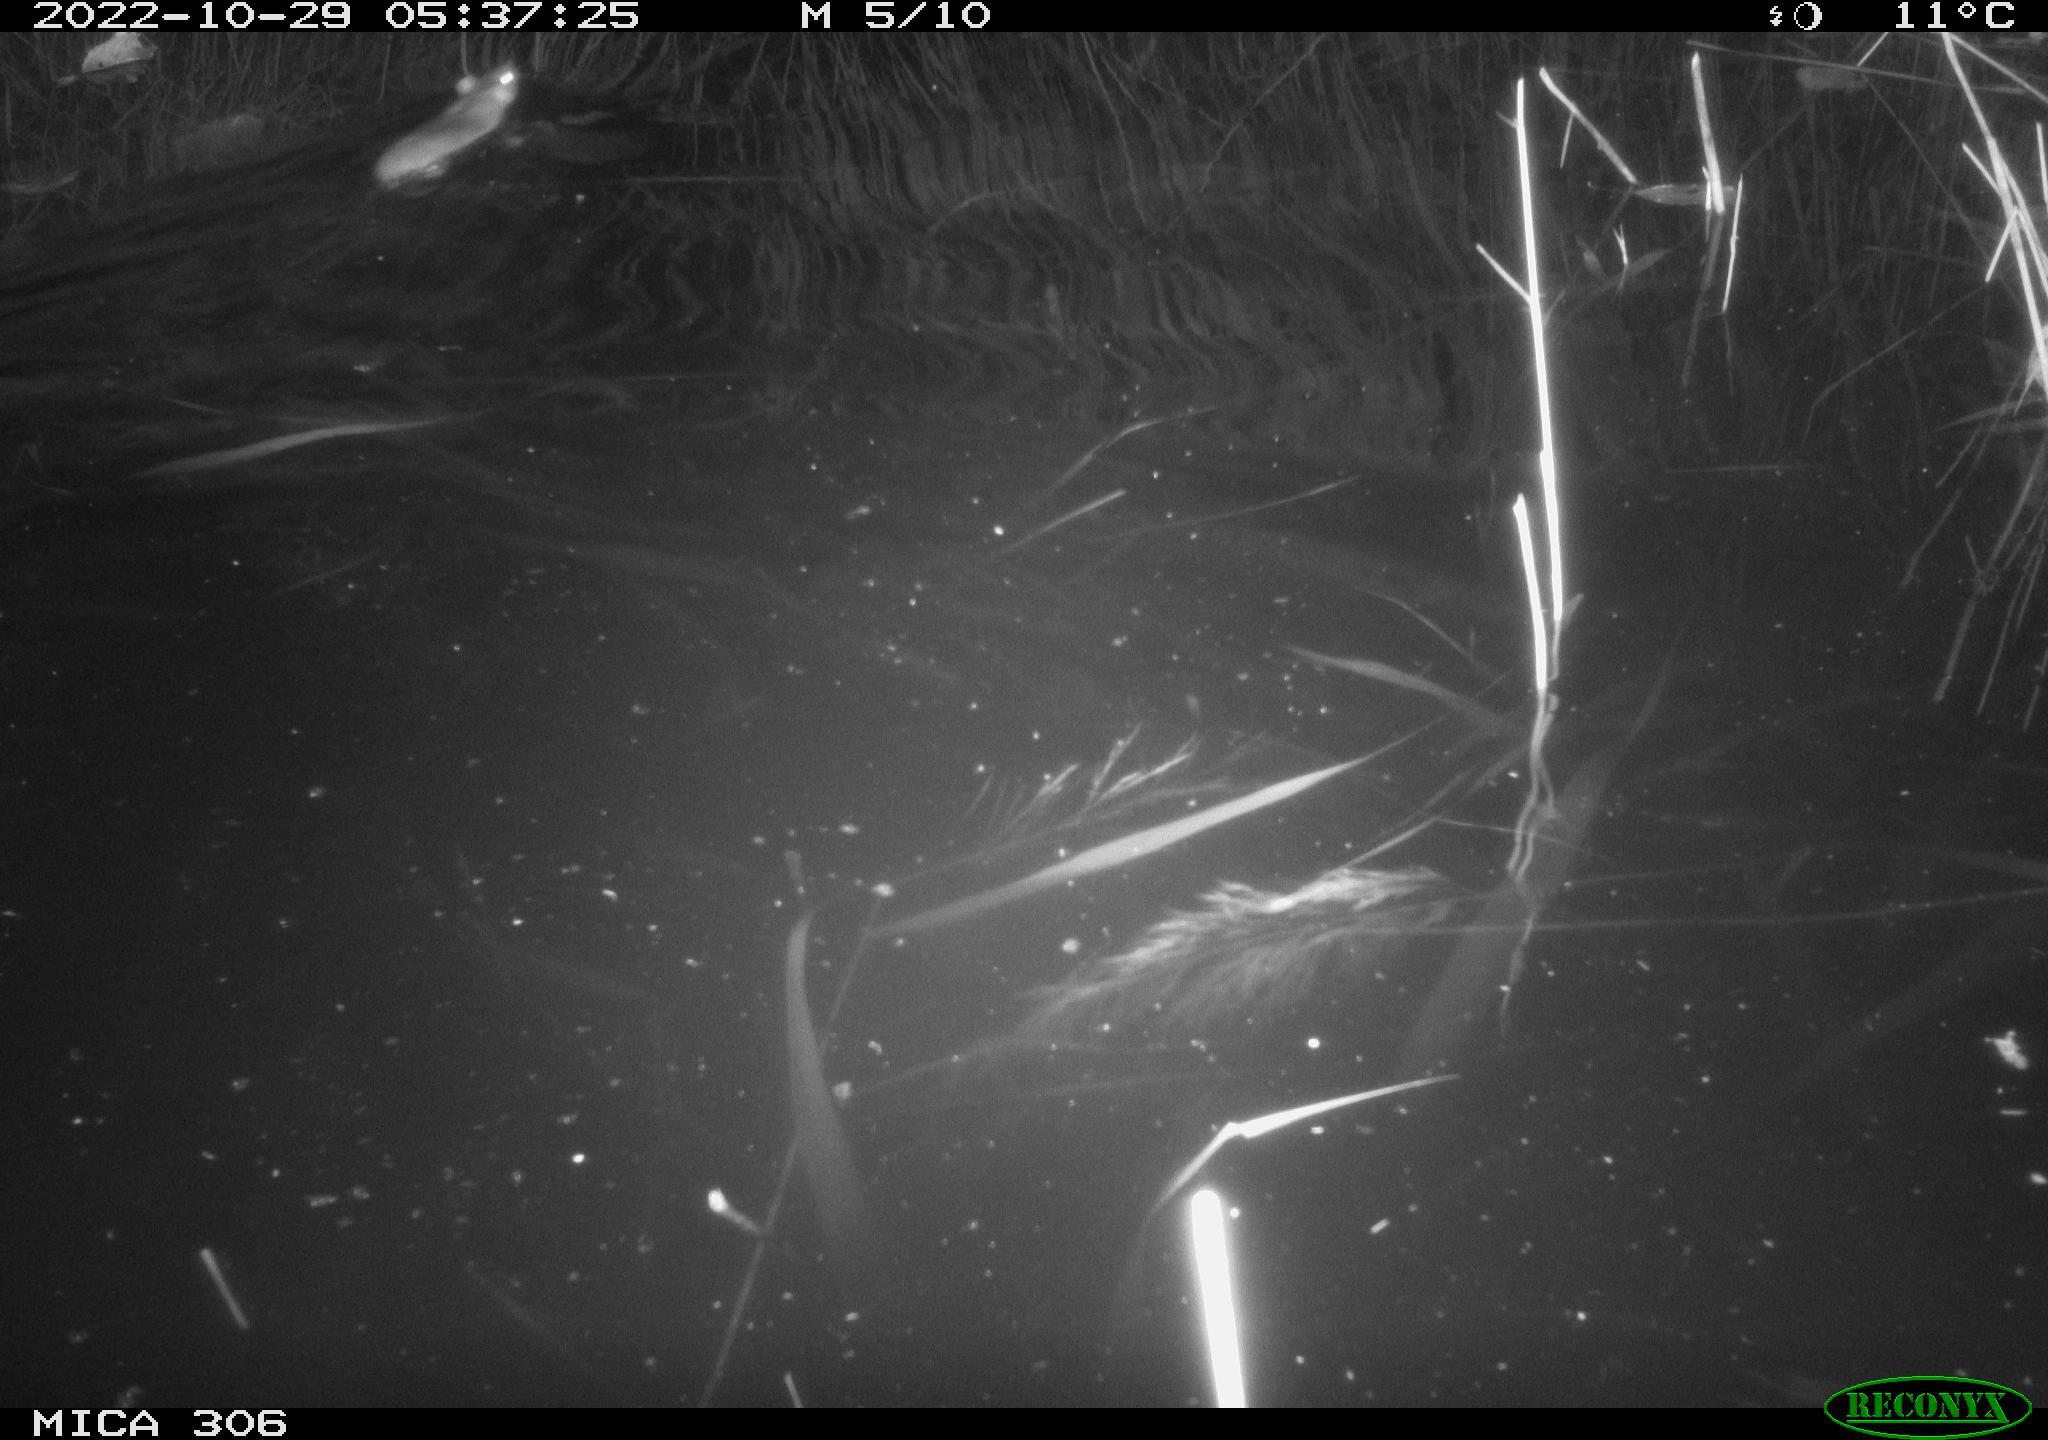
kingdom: Animalia
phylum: Chordata
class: Mammalia
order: Rodentia
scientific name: Rodentia
